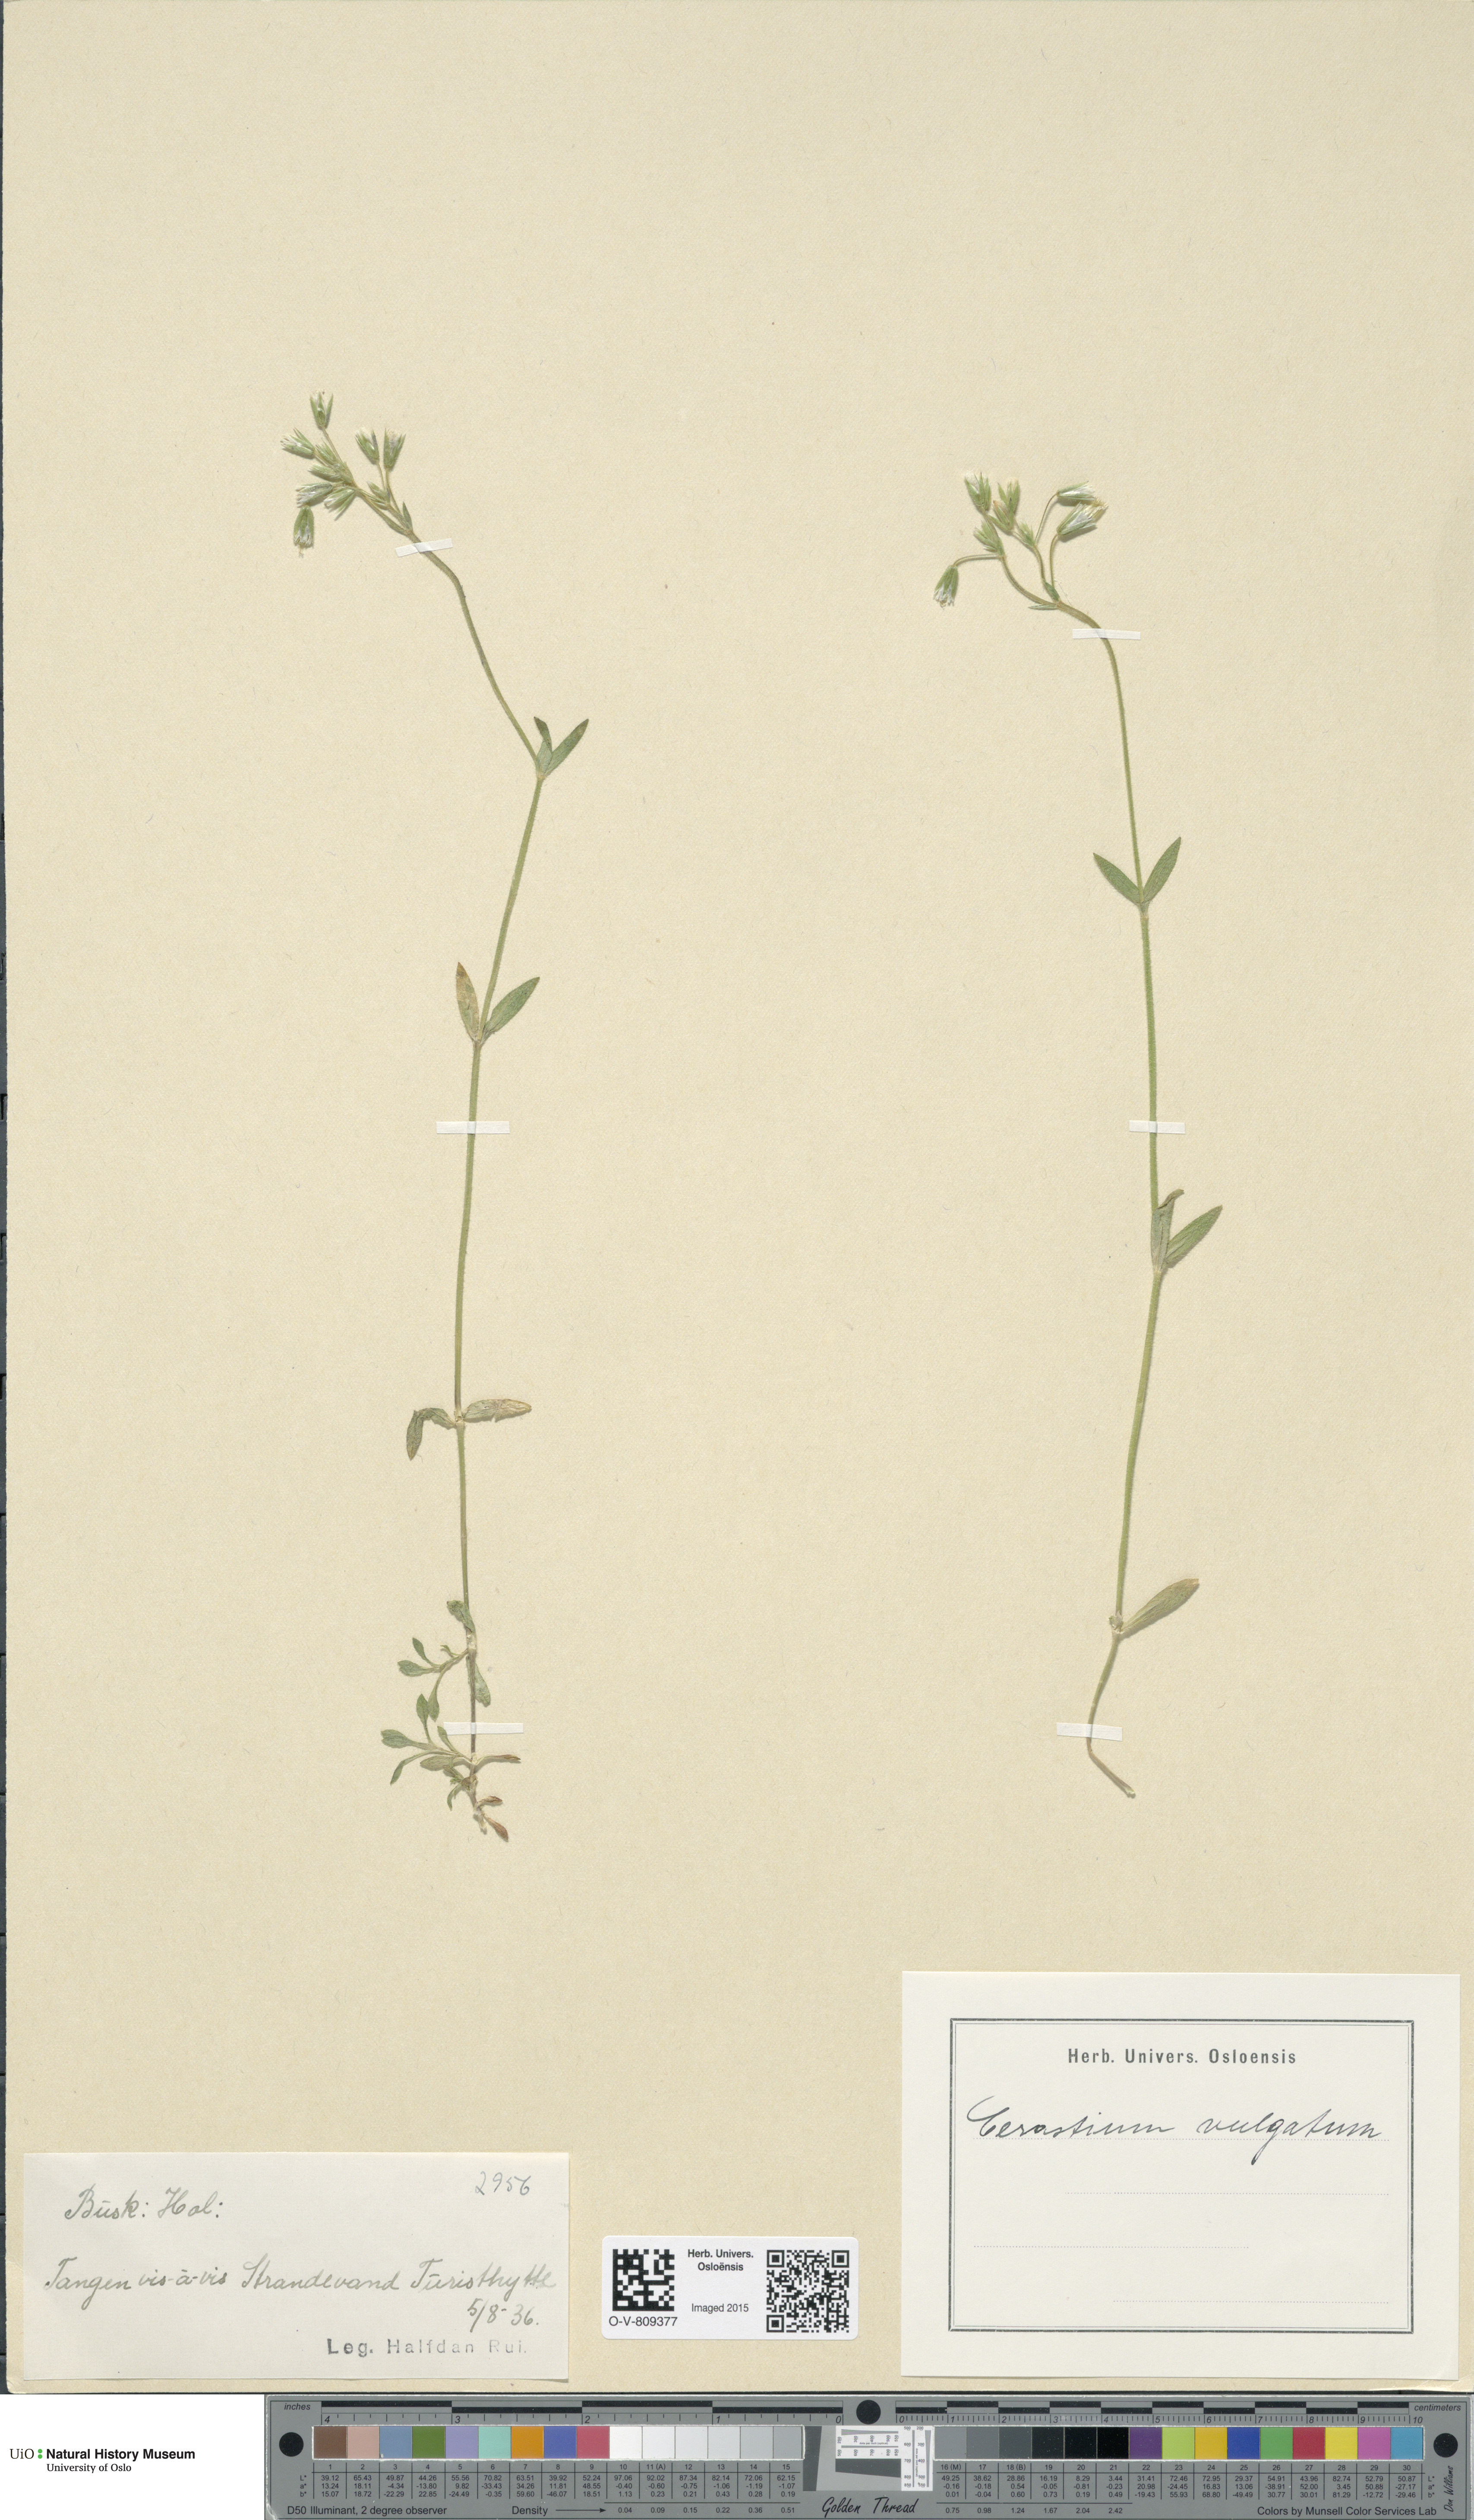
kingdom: Plantae
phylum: Tracheophyta
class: Magnoliopsida
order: Caryophyllales
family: Caryophyllaceae
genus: Cerastium
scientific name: Cerastium holosteoides
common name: Big chickweed
